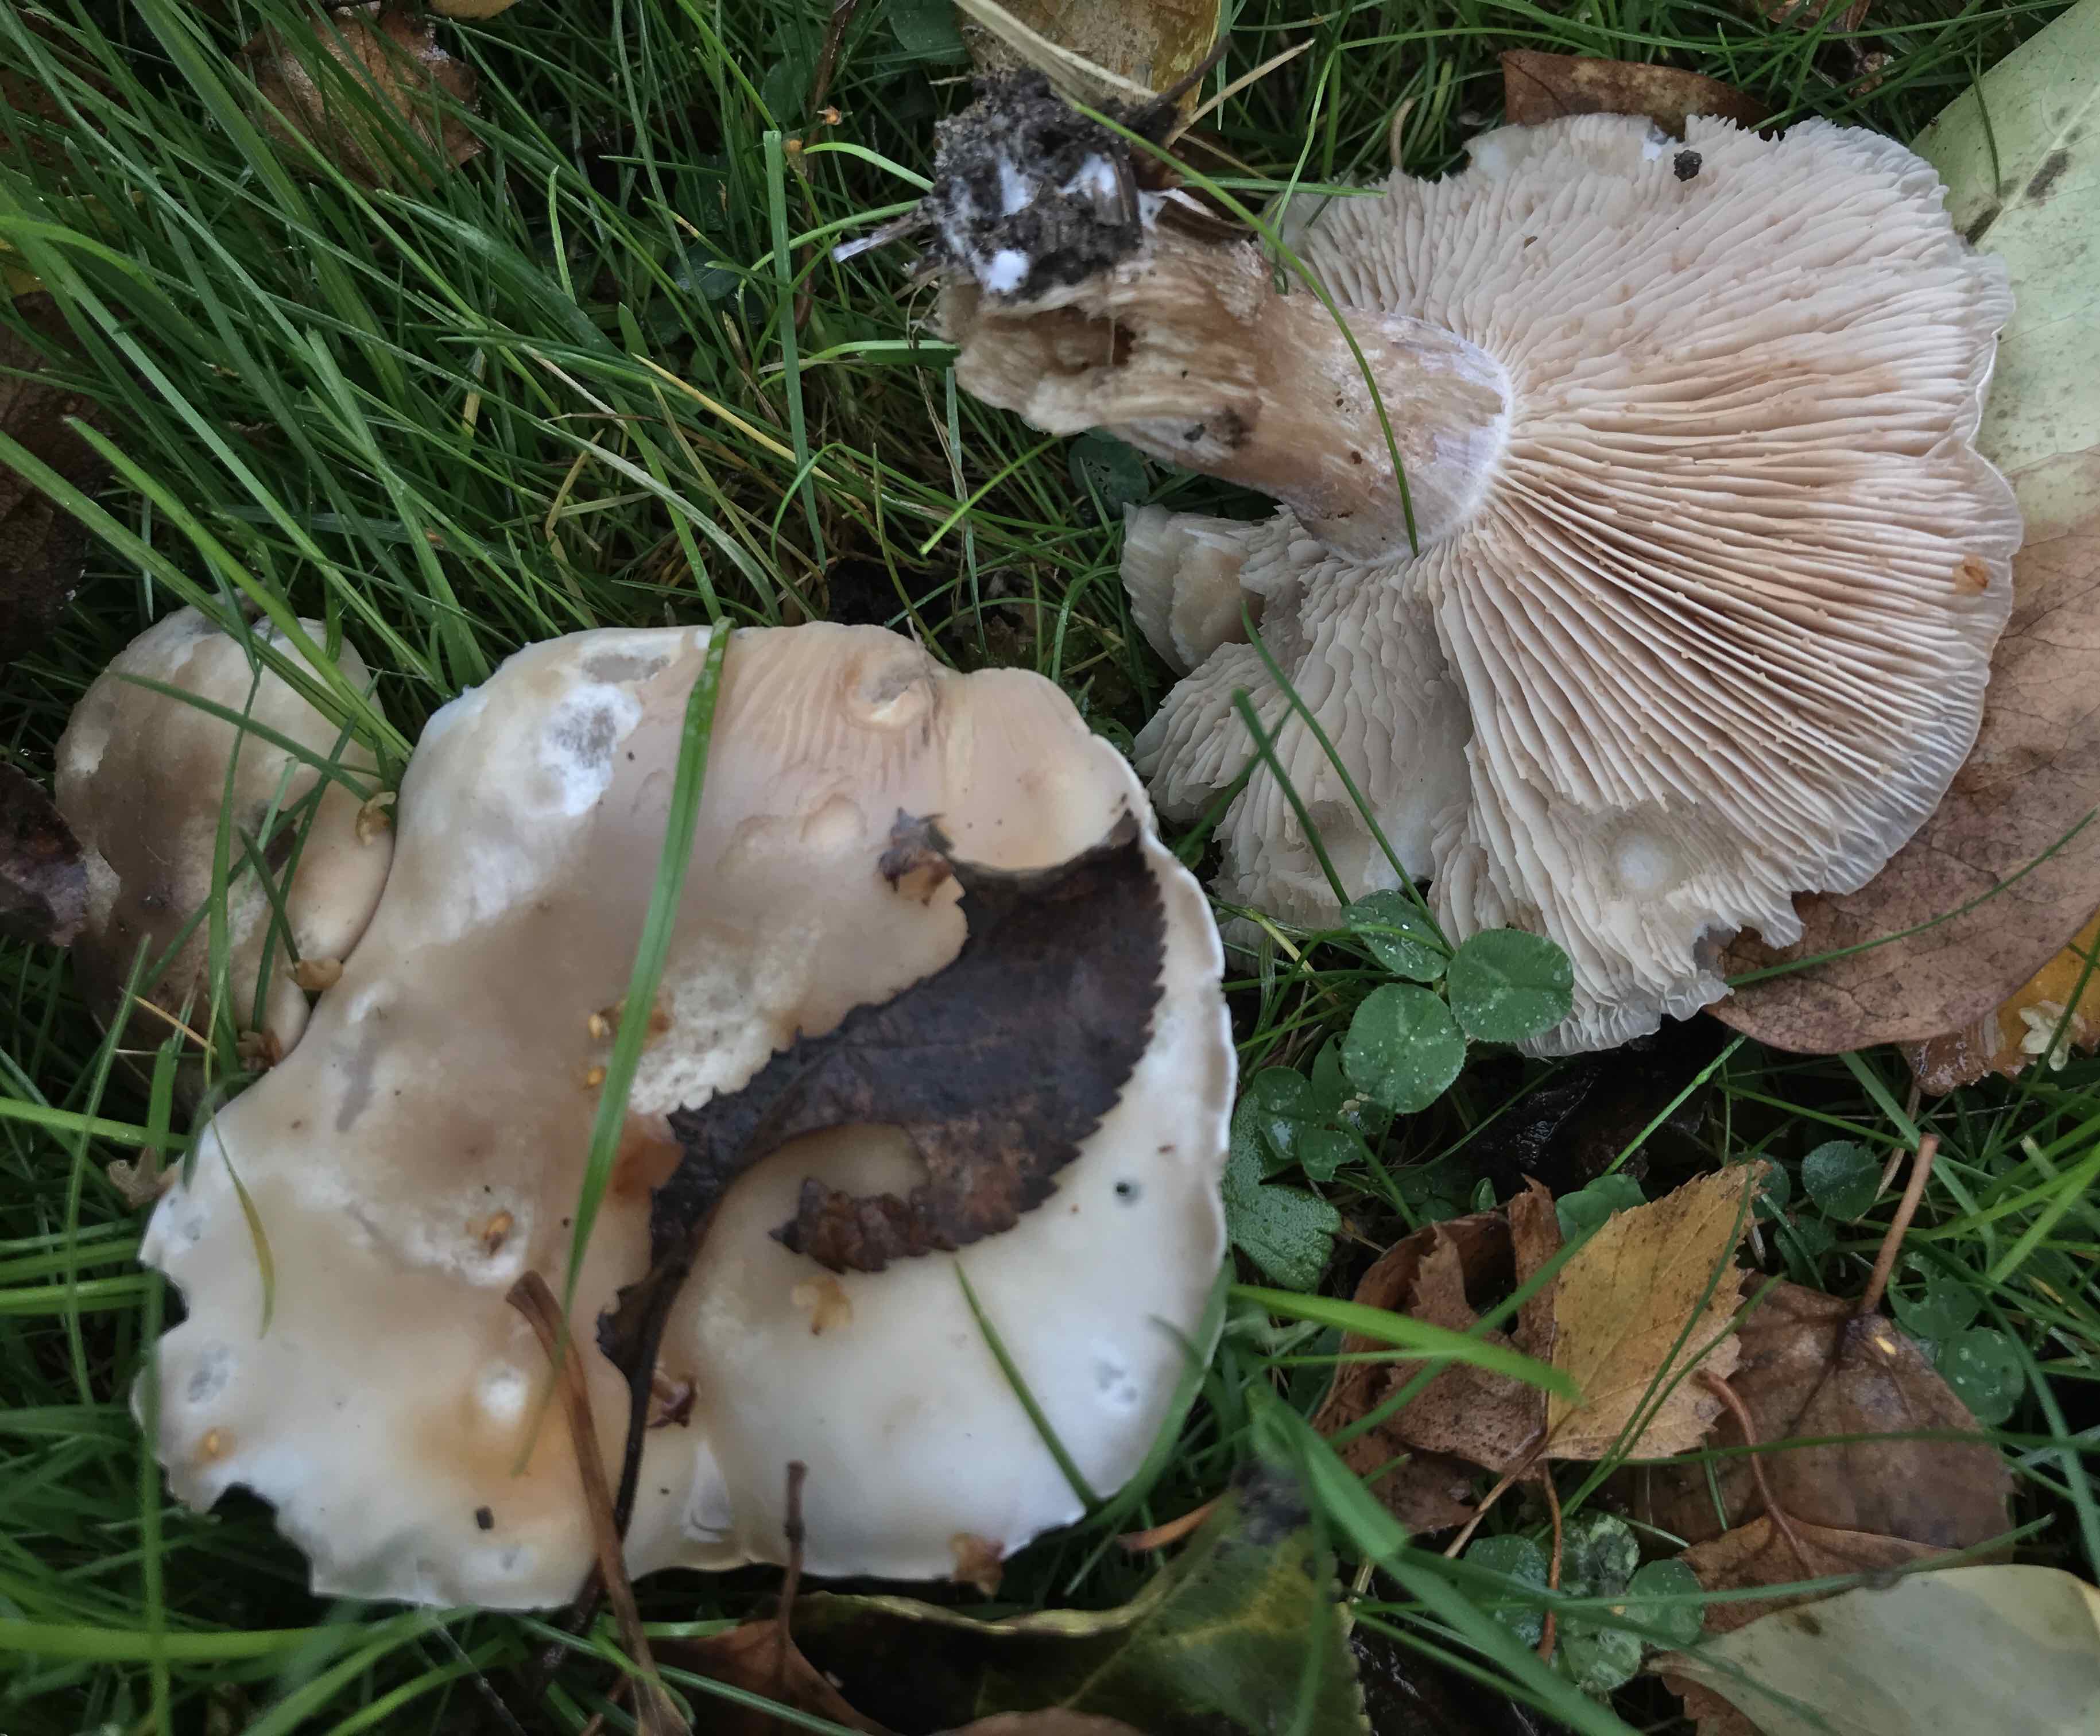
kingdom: Fungi
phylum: Basidiomycota
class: Agaricomycetes
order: Agaricales
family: Tricholomataceae
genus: Clitocybe
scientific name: Clitocybe nebularis
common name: tåge-tragthat
